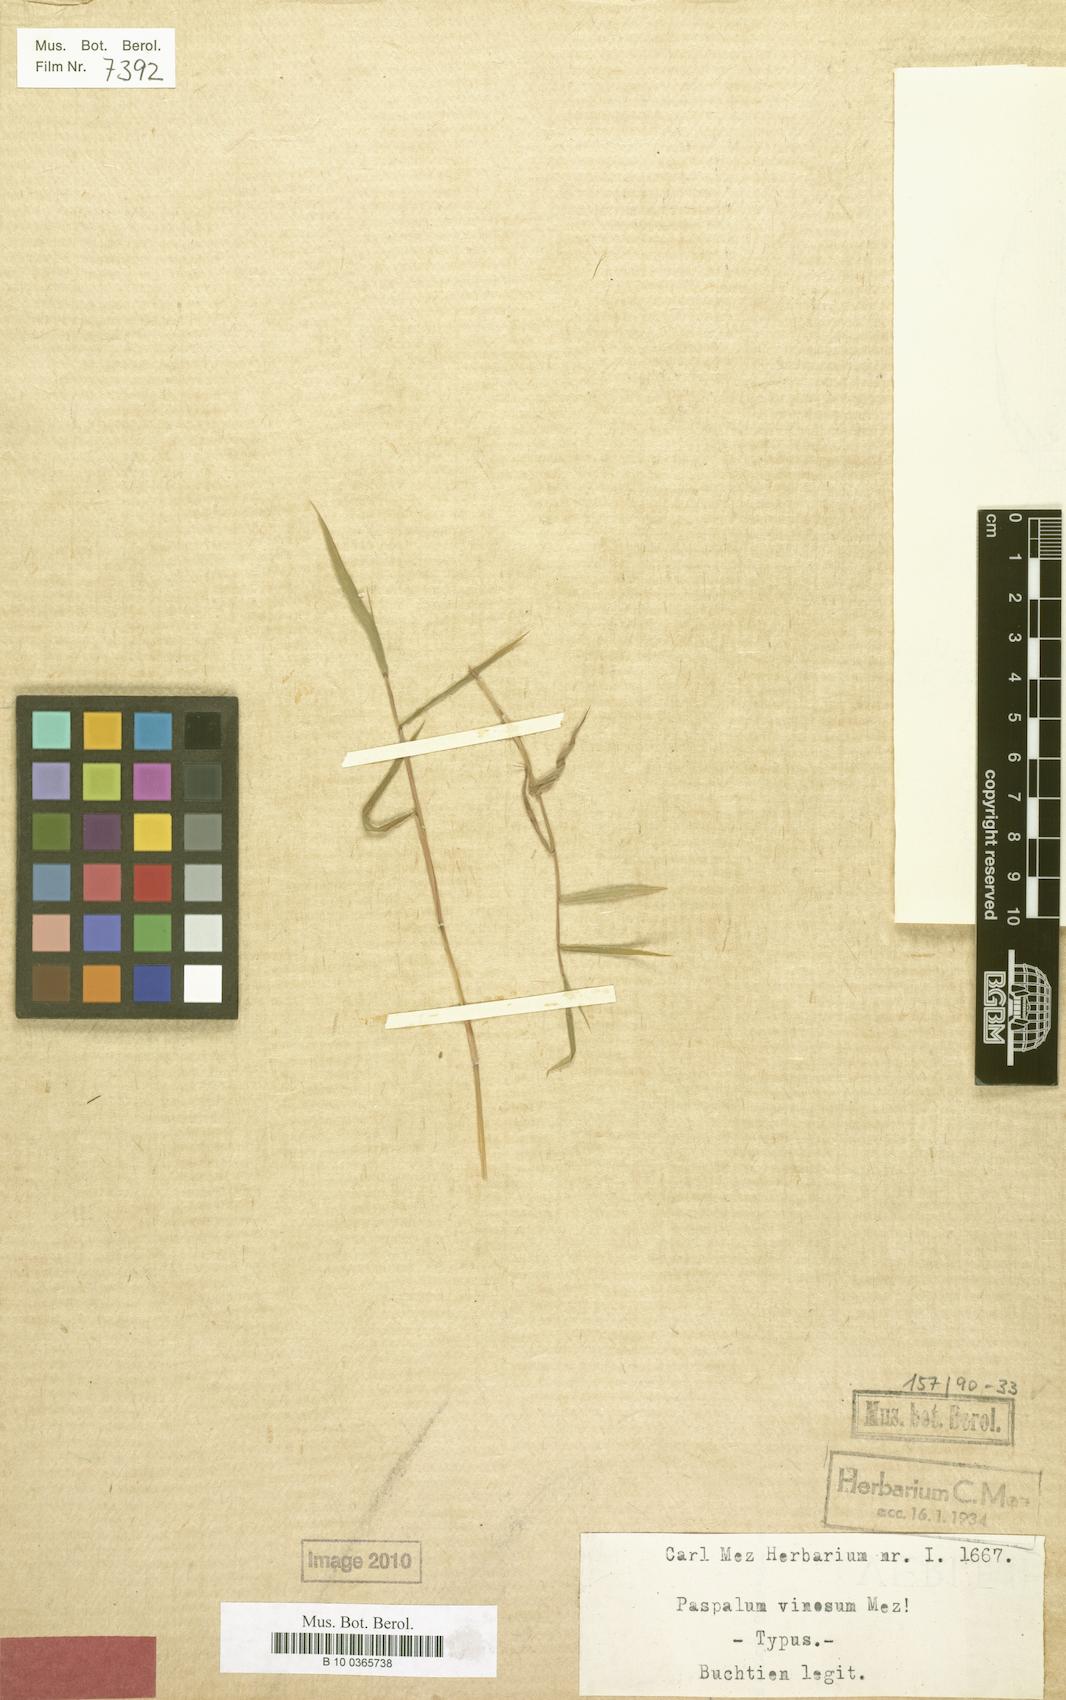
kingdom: Plantae
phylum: Tracheophyta
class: Liliopsida
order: Poales
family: Poaceae
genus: Paspalum
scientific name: Paspalum candidum
